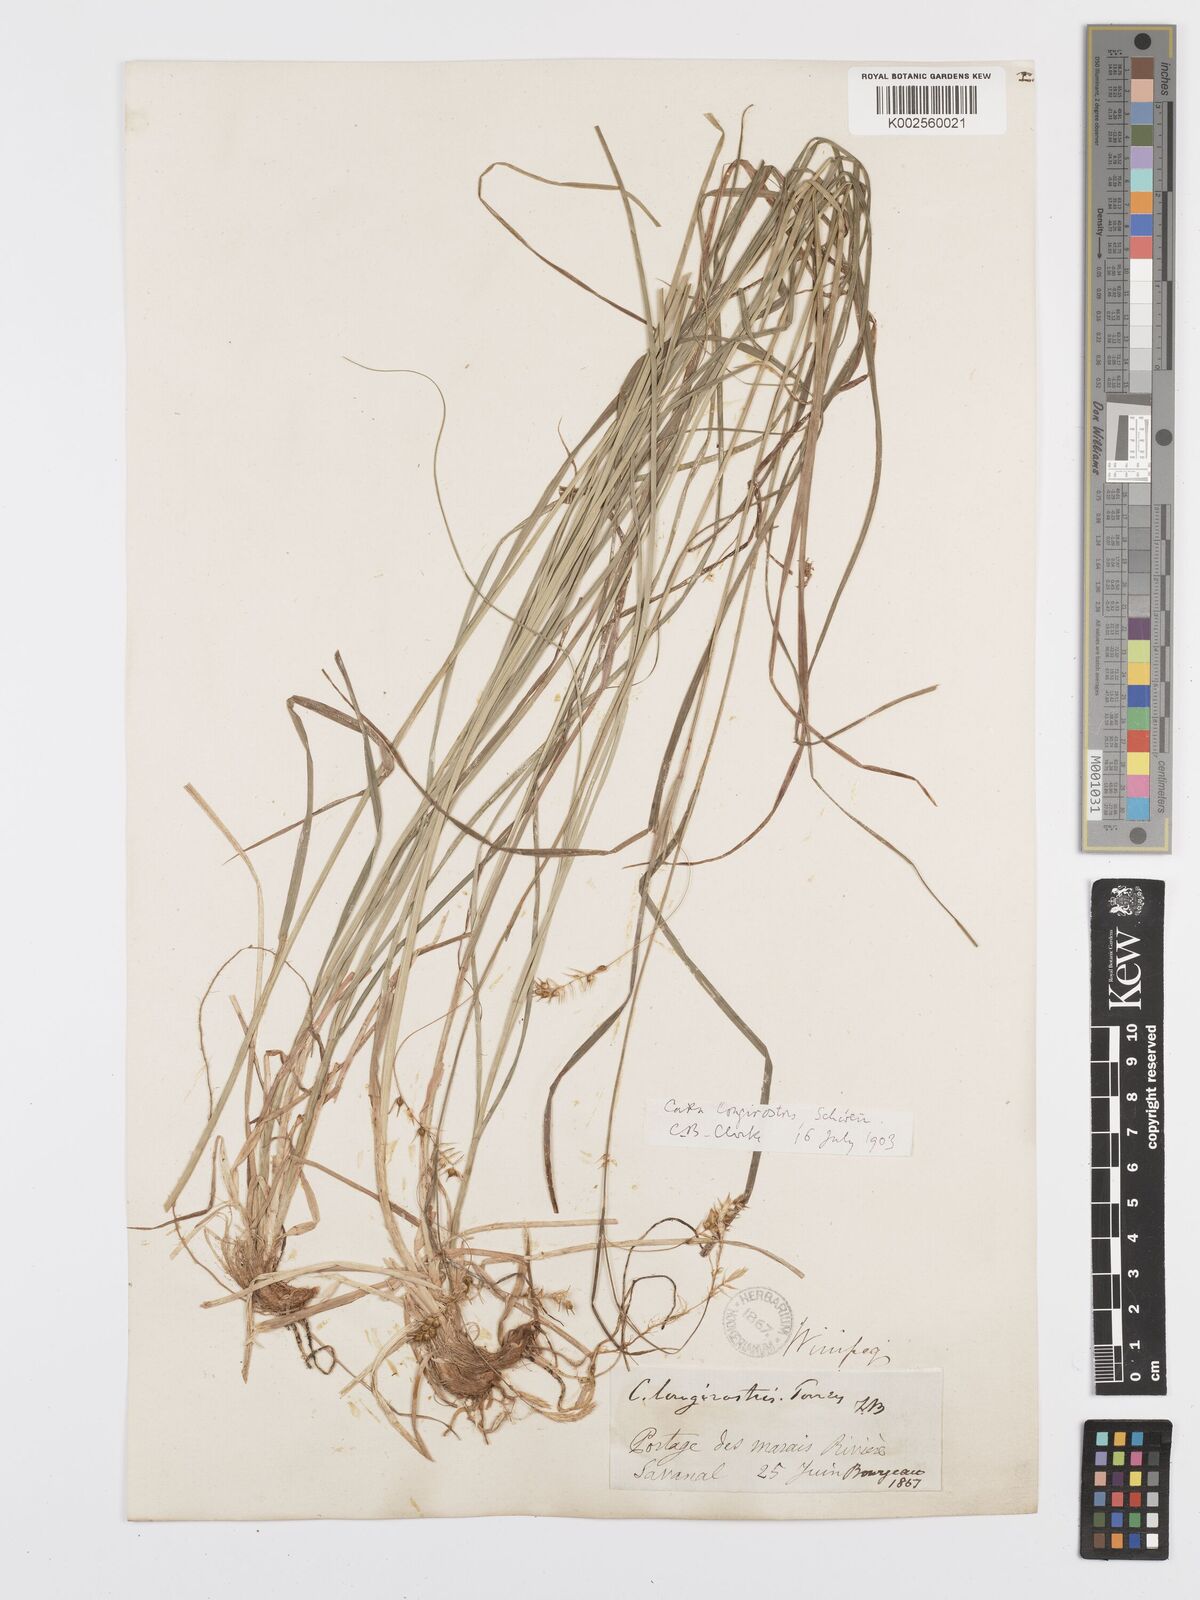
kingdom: Plantae
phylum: Tracheophyta
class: Liliopsida
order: Poales
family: Cyperaceae
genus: Carex
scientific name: Carex sprengelii
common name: Long-beaked sedge
